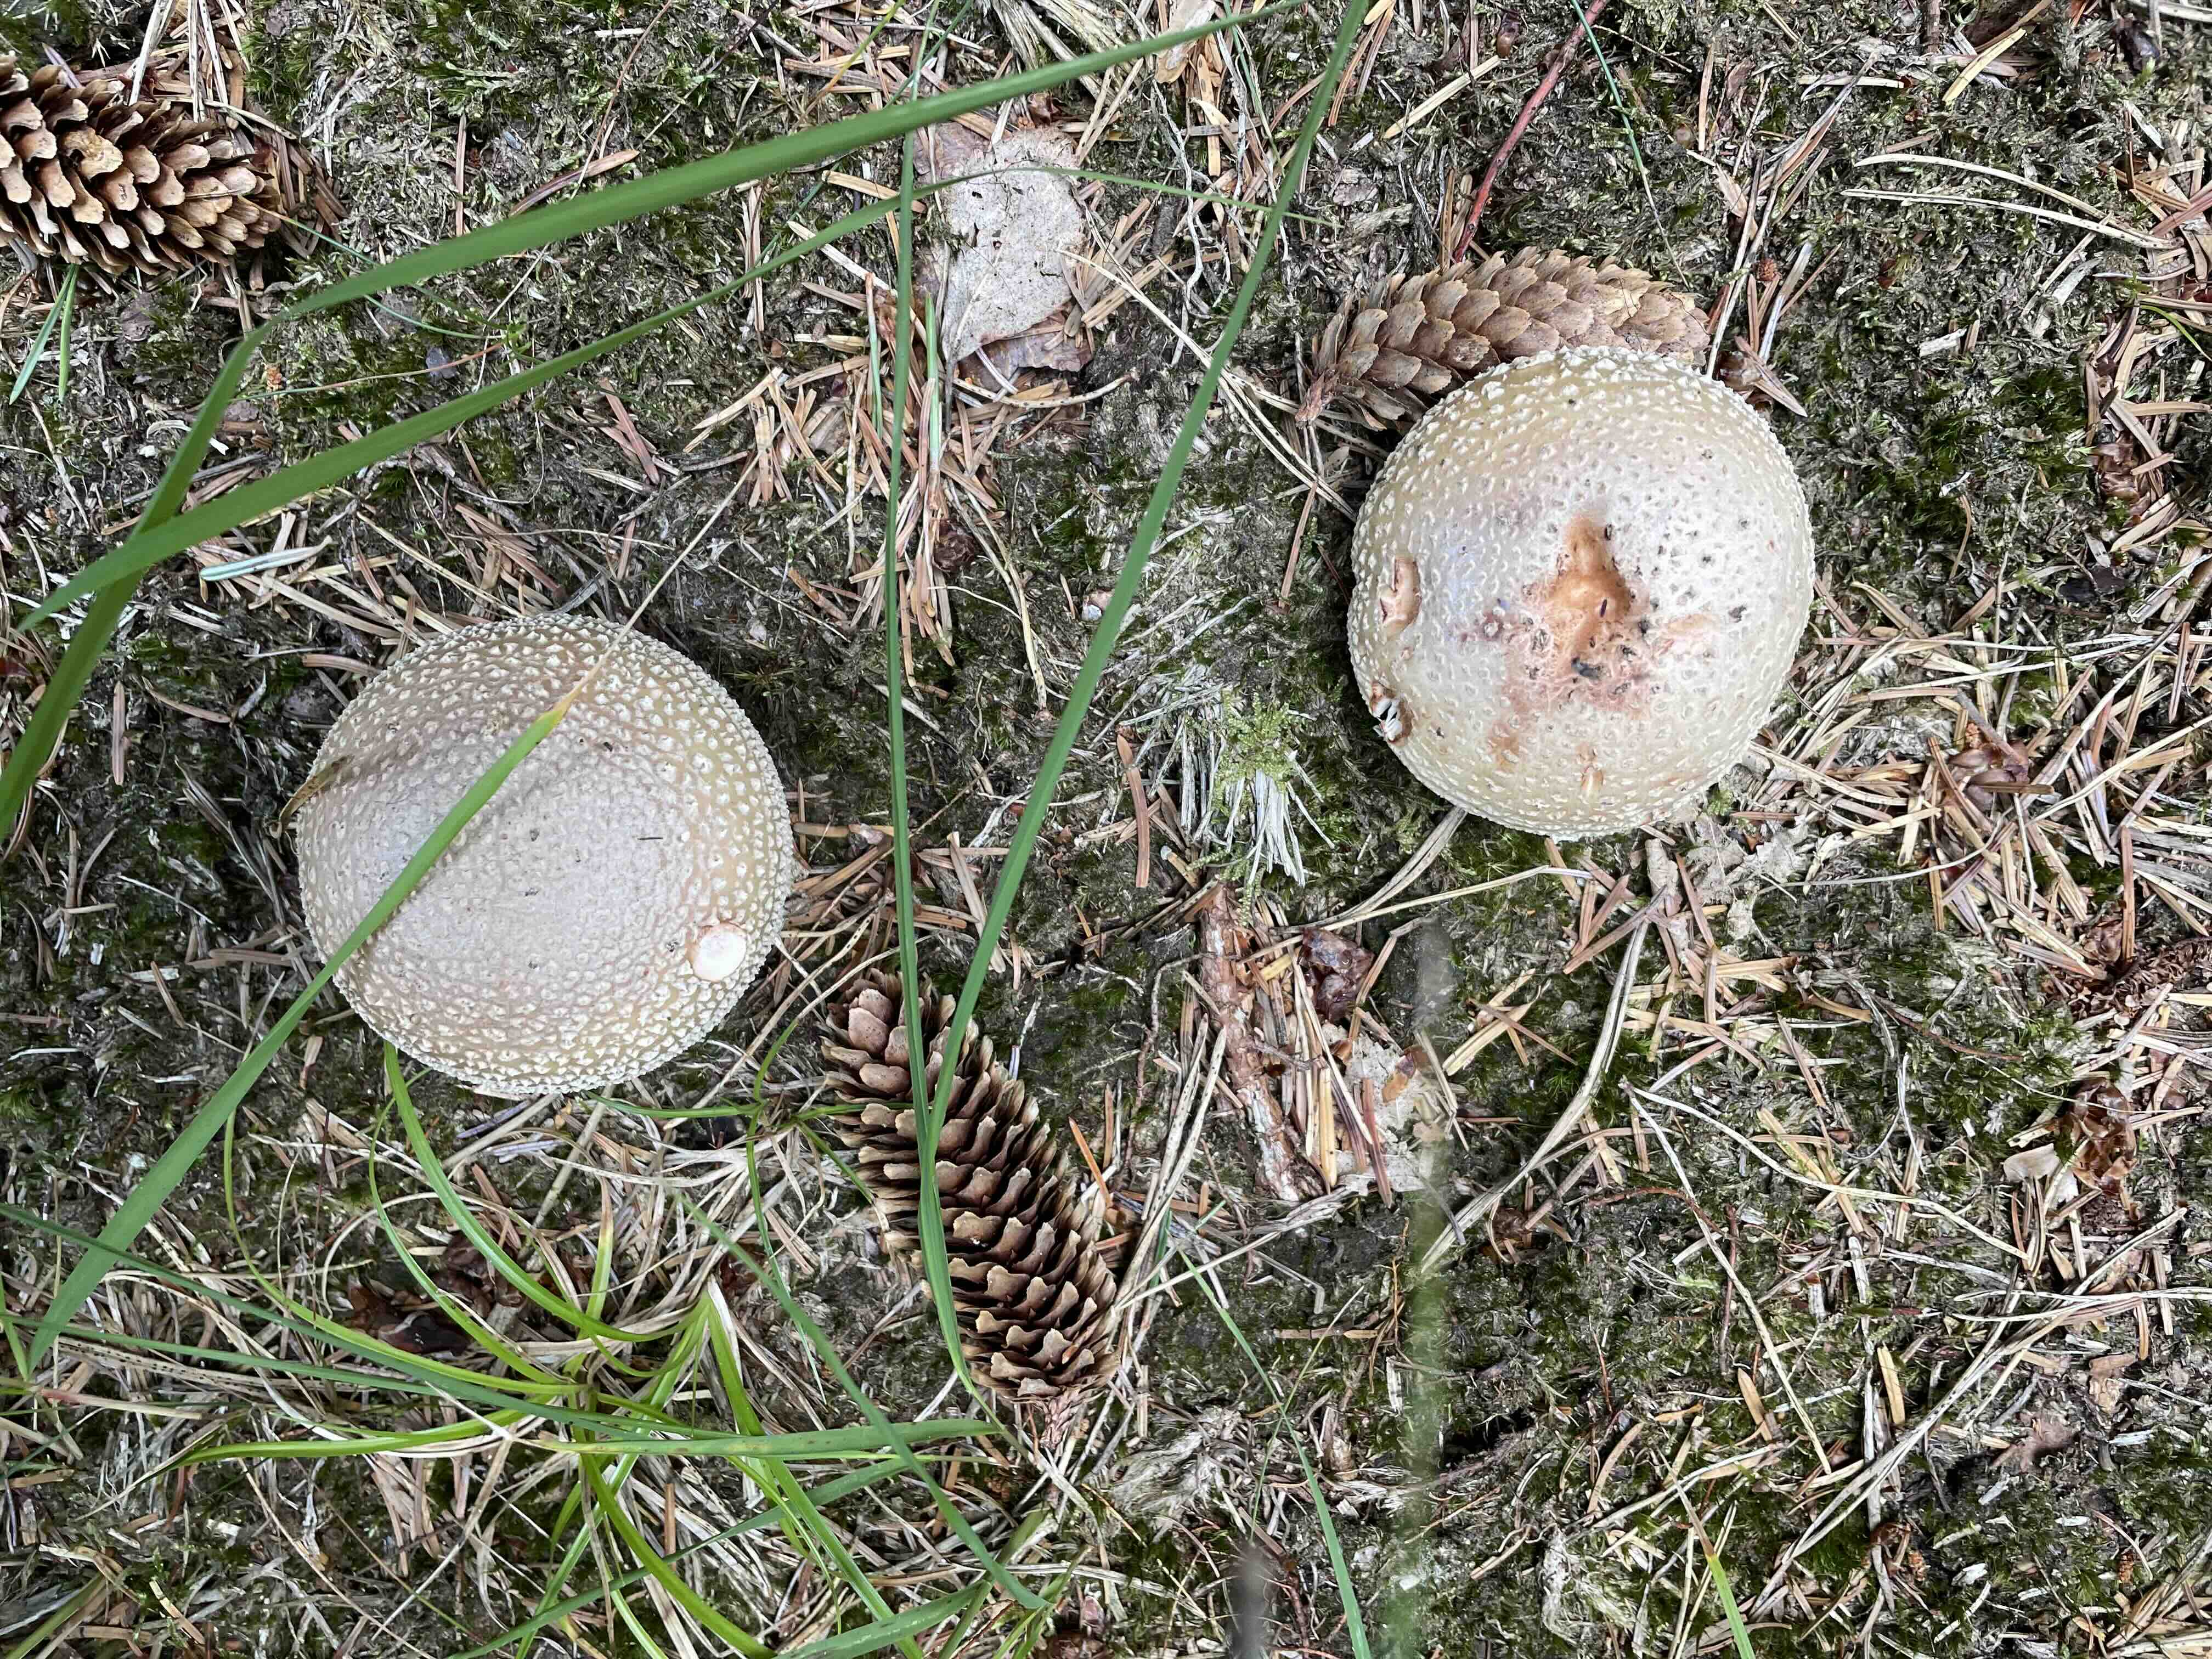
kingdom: Fungi
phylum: Basidiomycota
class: Agaricomycetes
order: Agaricales
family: Amanitaceae
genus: Amanita
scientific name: Amanita rubescens
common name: rødmende fluesvamp
